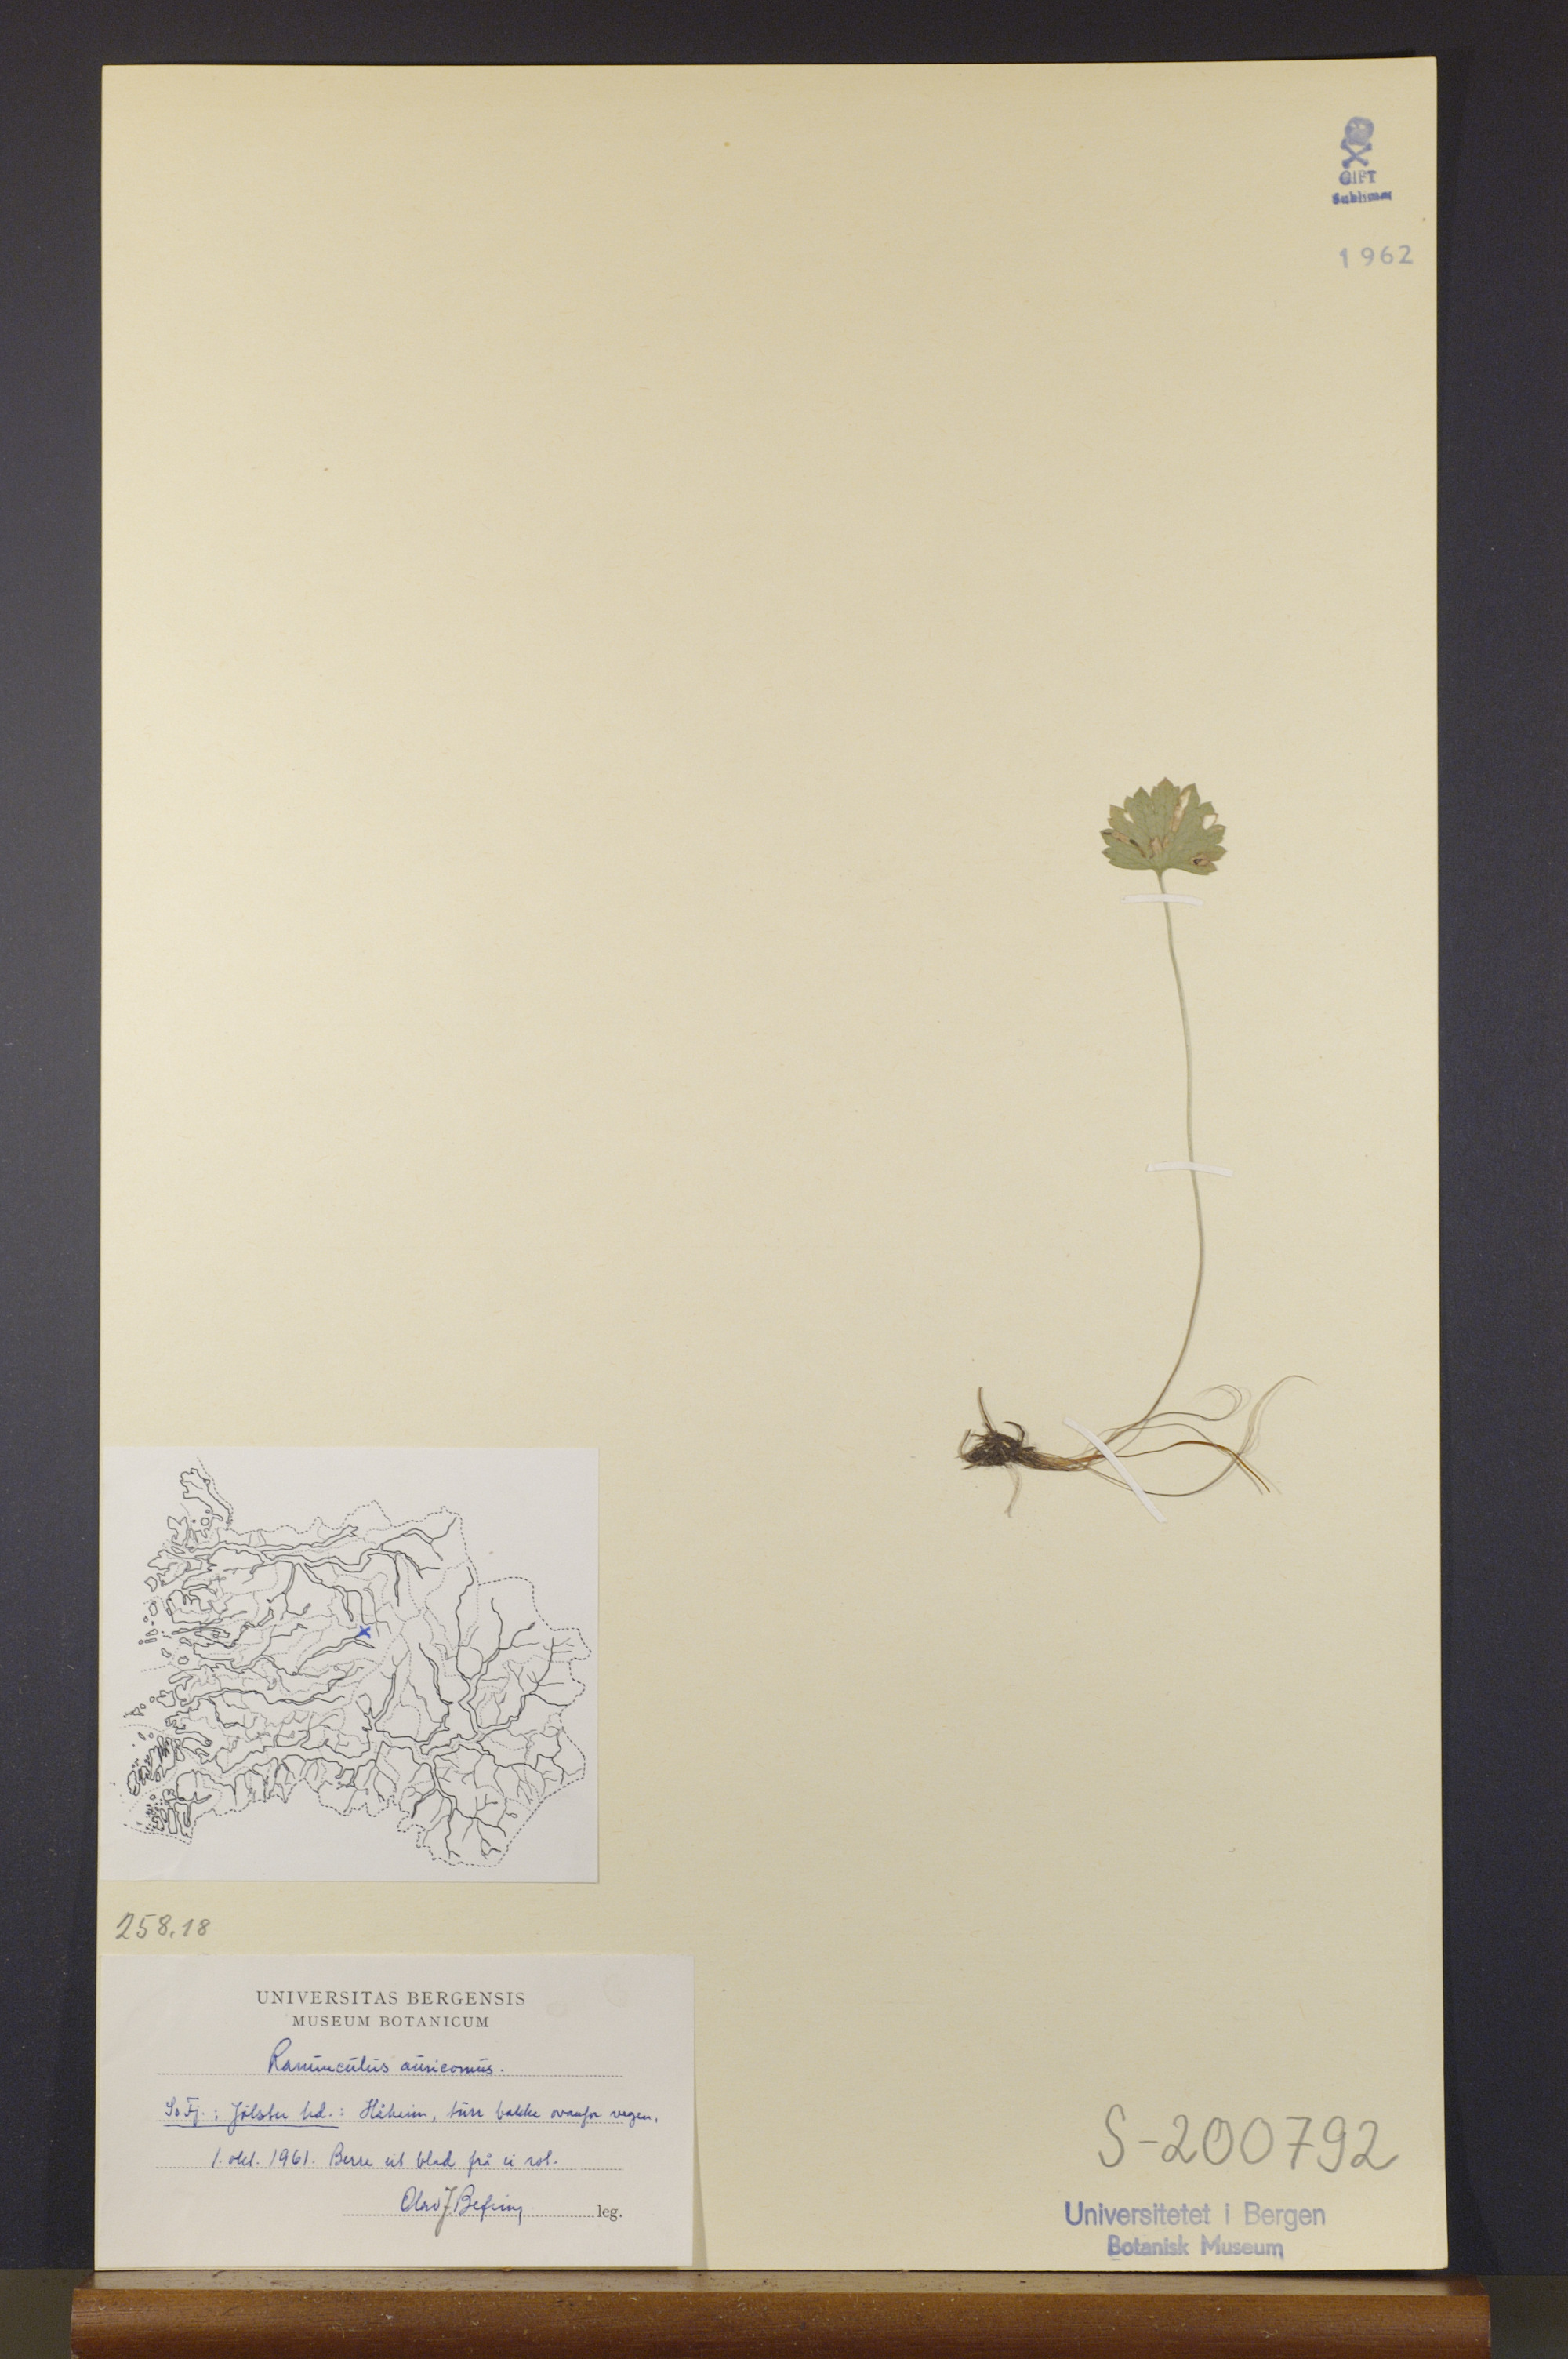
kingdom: Plantae
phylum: Tracheophyta
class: Magnoliopsida
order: Ranunculales
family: Ranunculaceae
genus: Ranunculus
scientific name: Ranunculus auricomus
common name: Goldilocks buttercup
